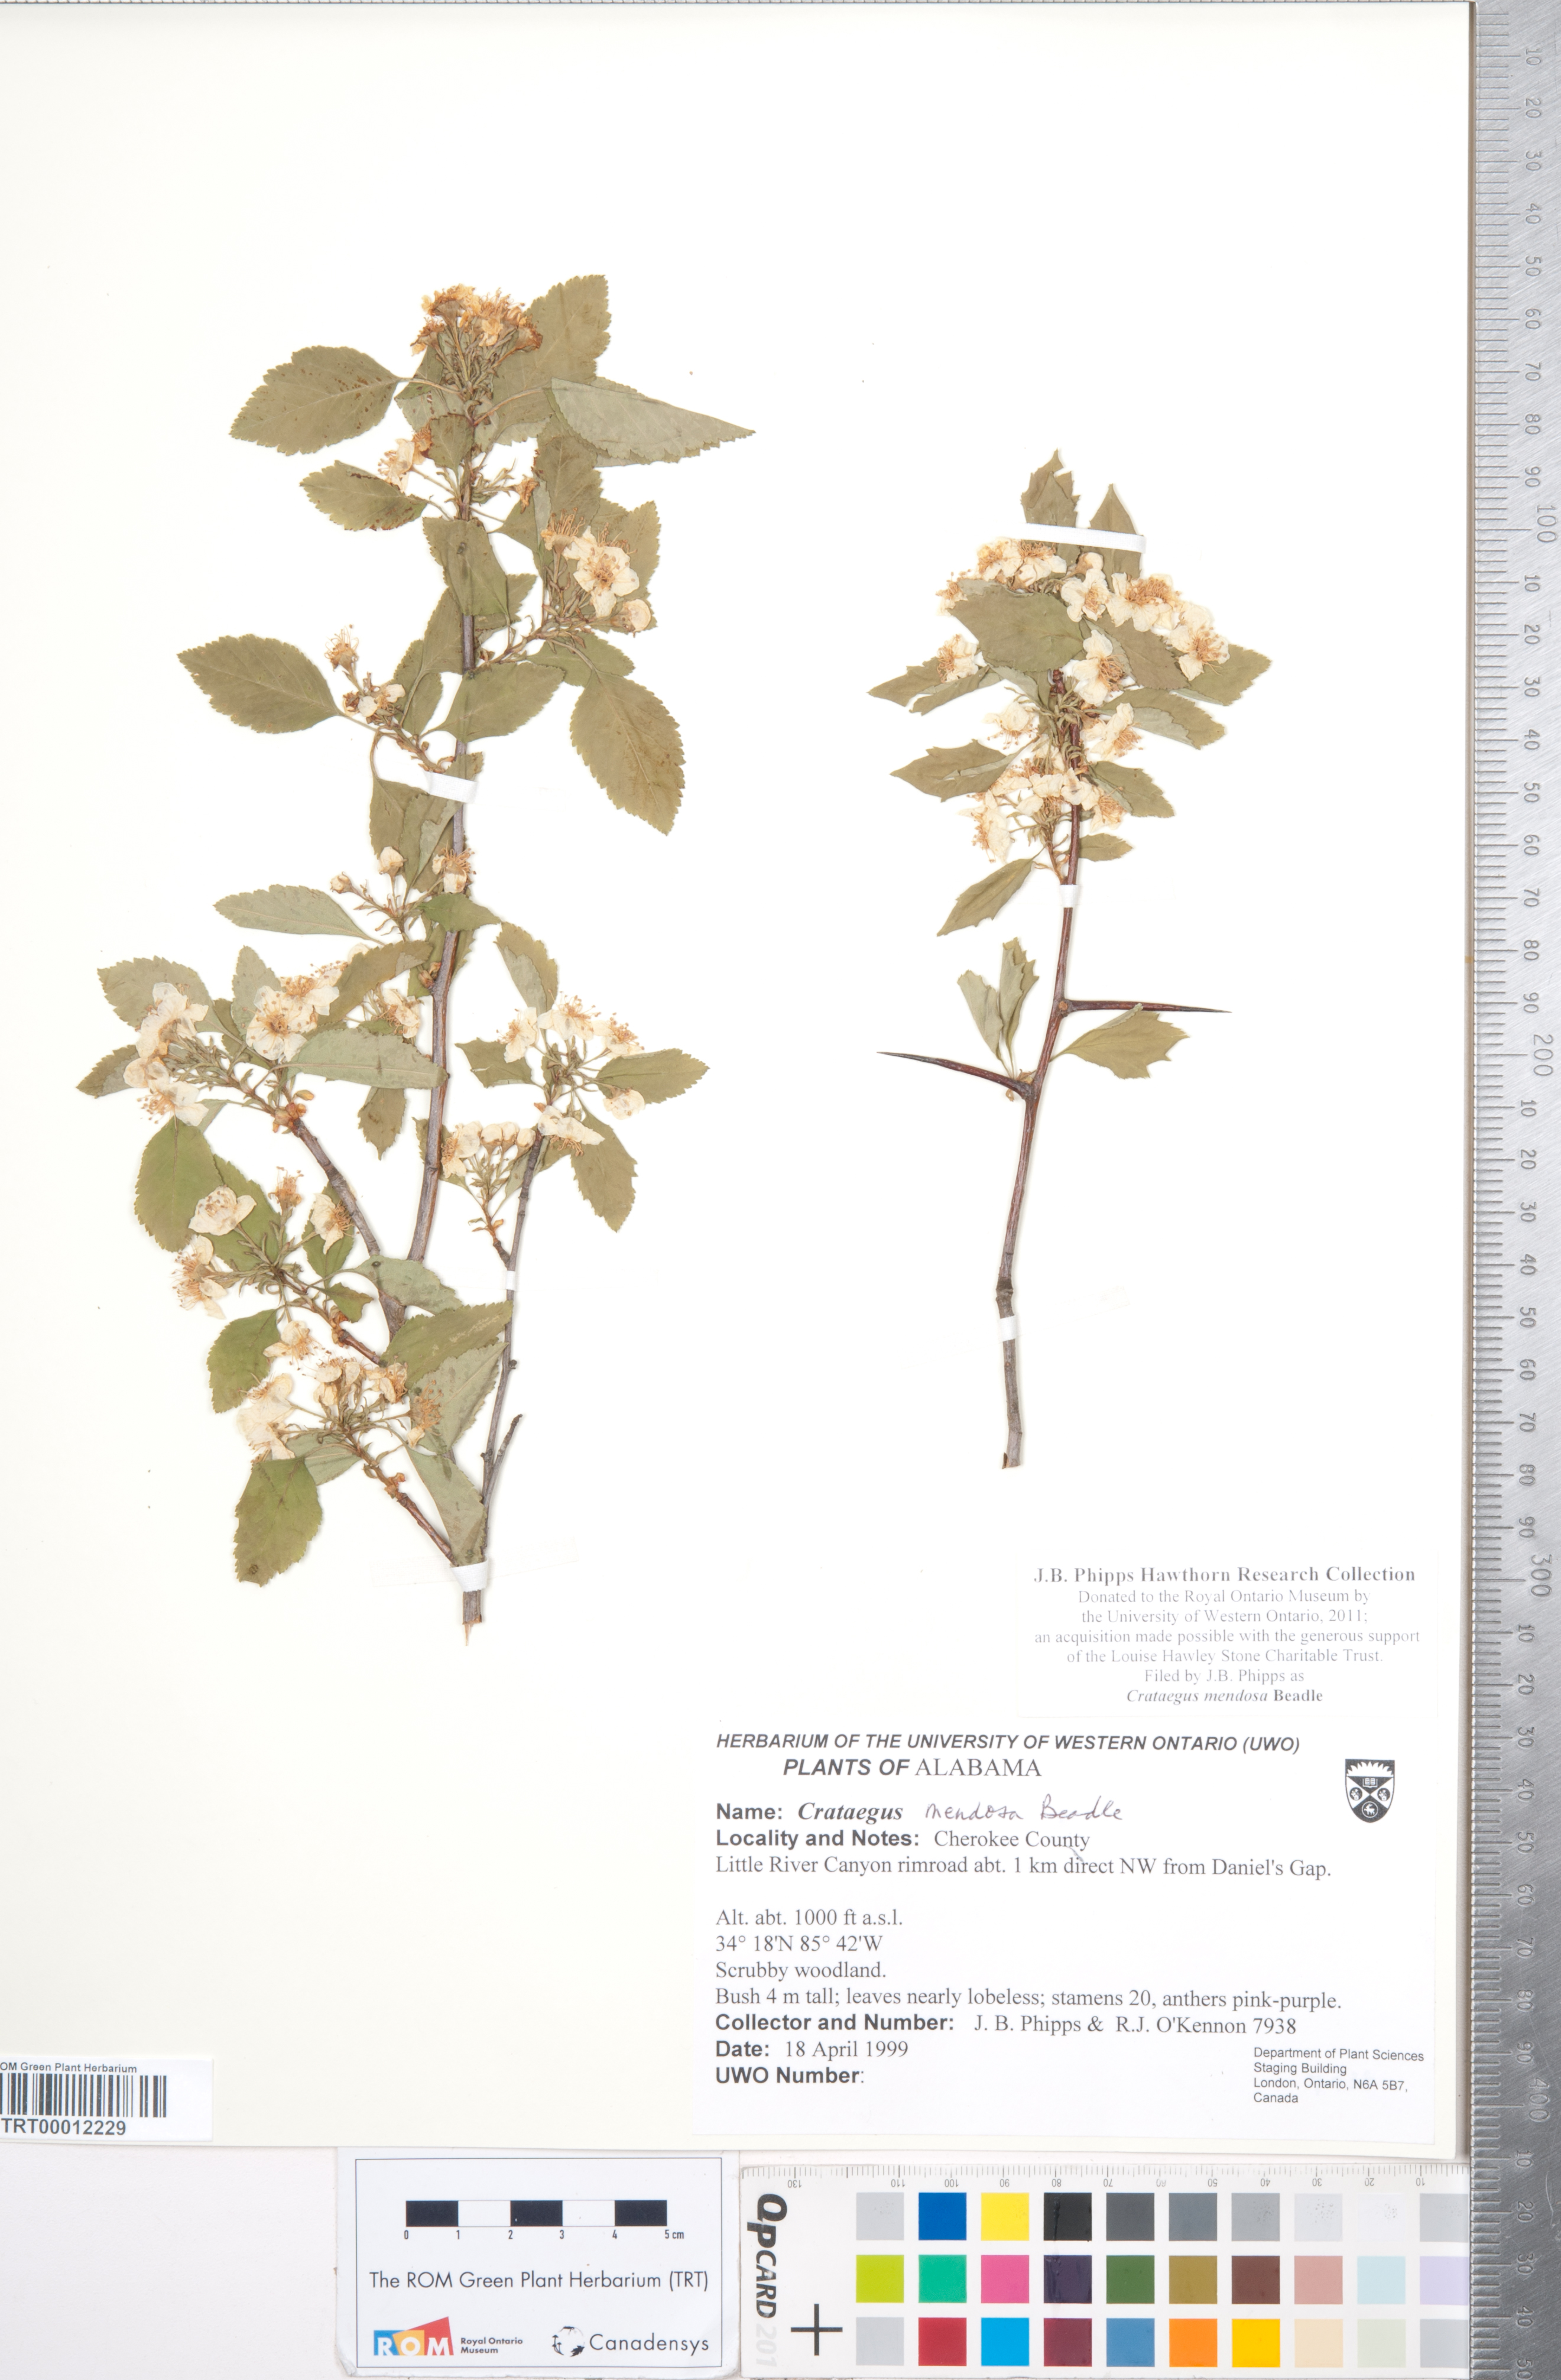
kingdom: Plantae
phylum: Tracheophyta
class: Magnoliopsida
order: Rosales
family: Rosaceae
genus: Crataegus
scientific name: Crataegus pulcherrima
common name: Beautiful hawthorn
